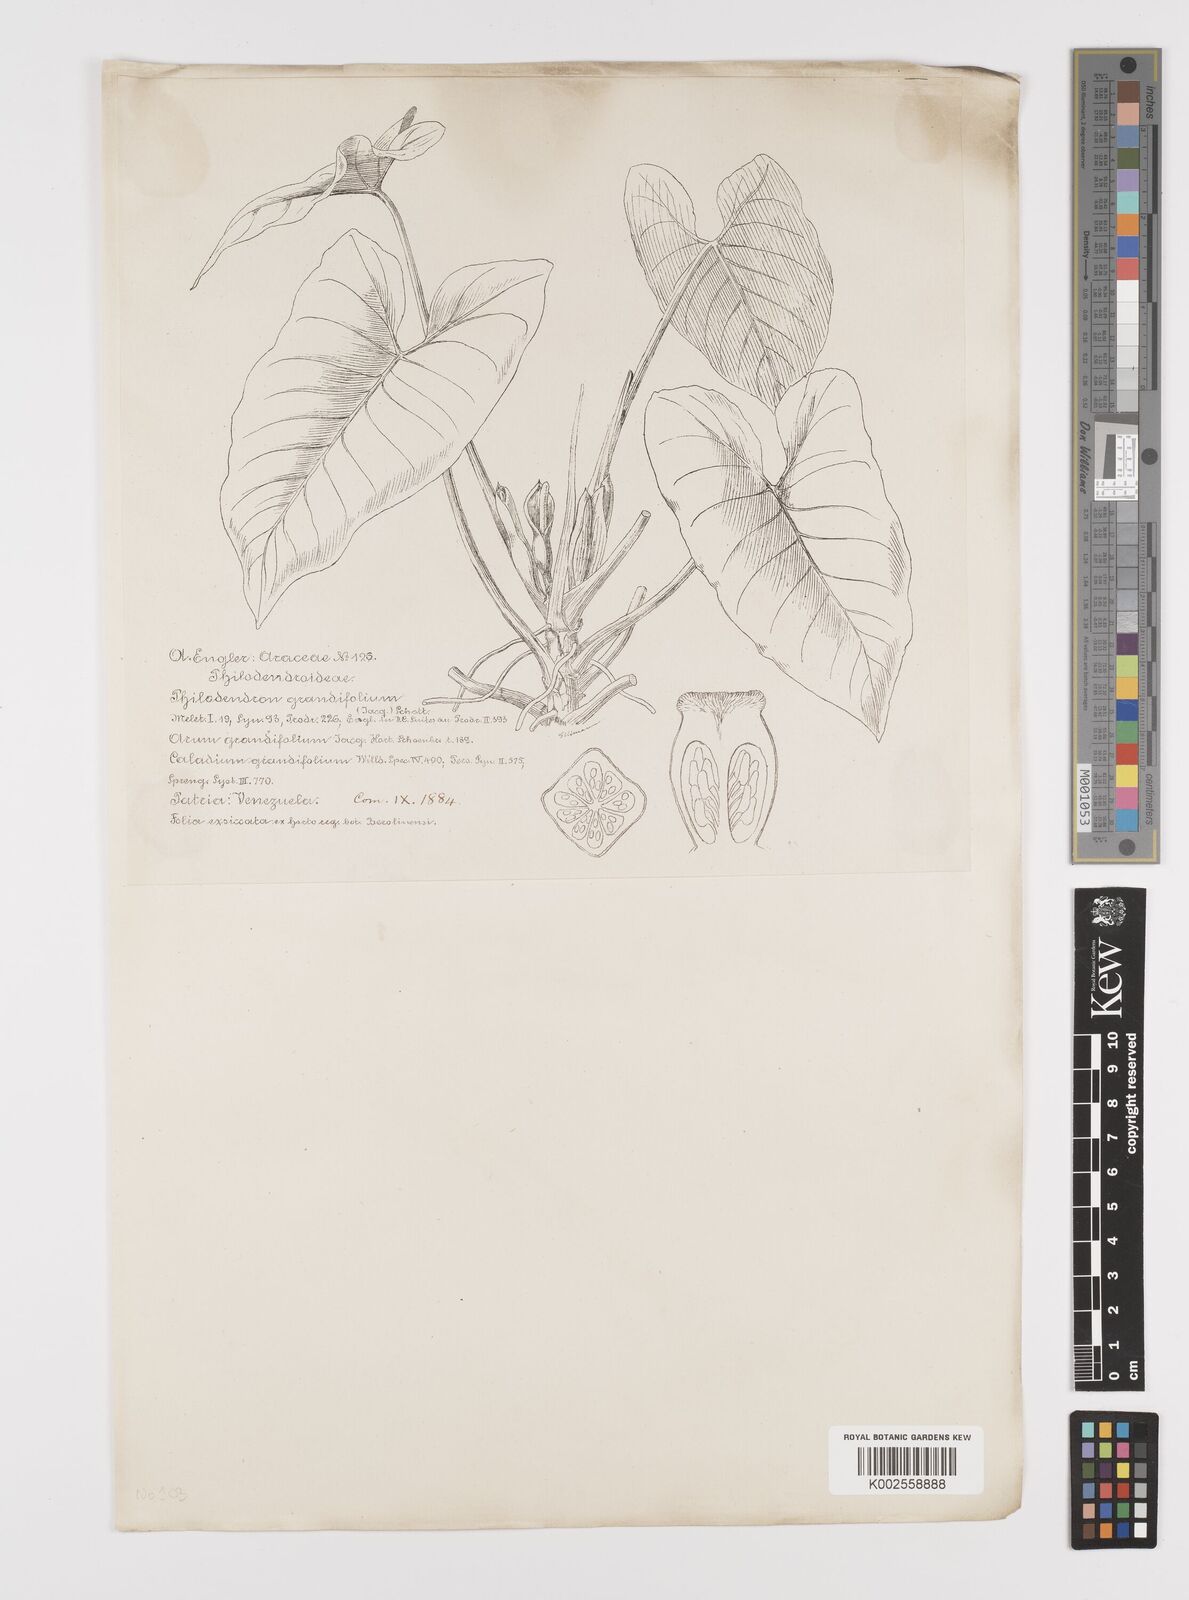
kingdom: Plantae
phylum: Tracheophyta
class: Liliopsida
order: Alismatales
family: Araceae
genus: Philodendron
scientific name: Philodendron grandifolium
